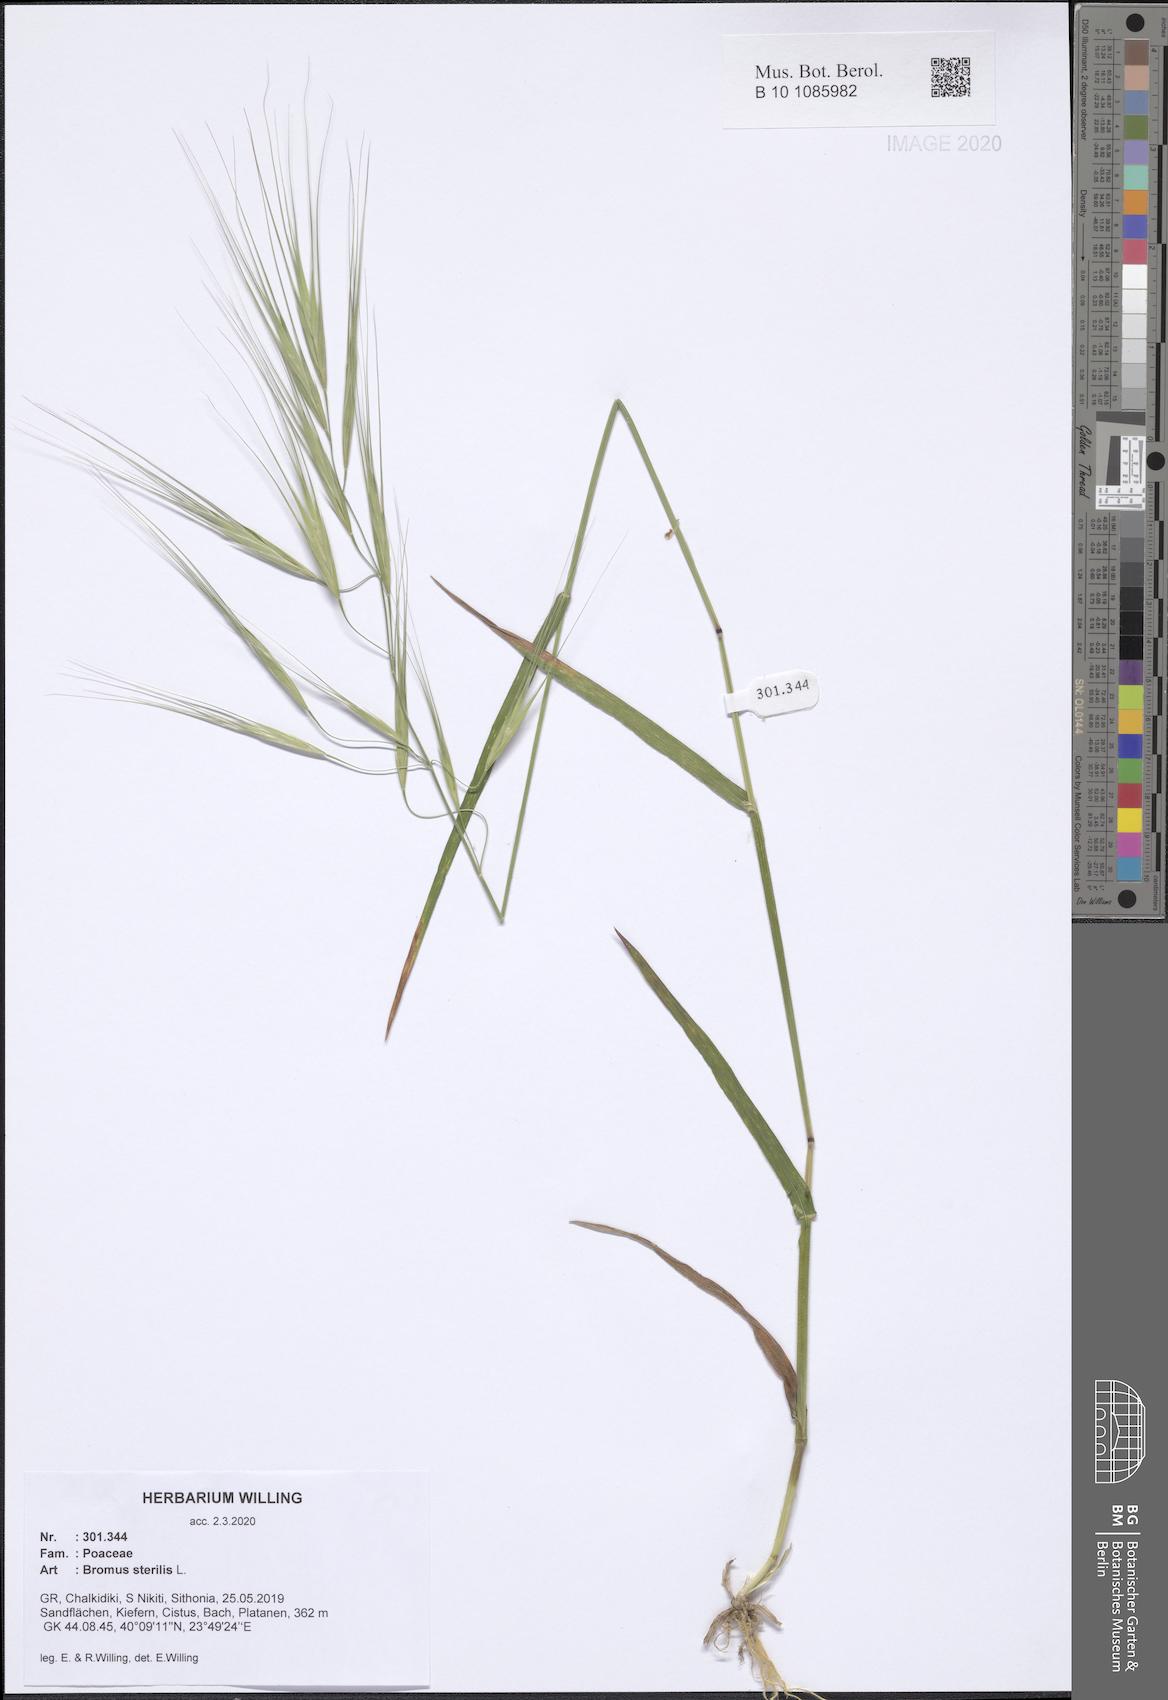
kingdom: Plantae
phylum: Tracheophyta
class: Liliopsida
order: Poales
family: Poaceae
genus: Bromus
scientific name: Bromus sterilis
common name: Poverty brome
